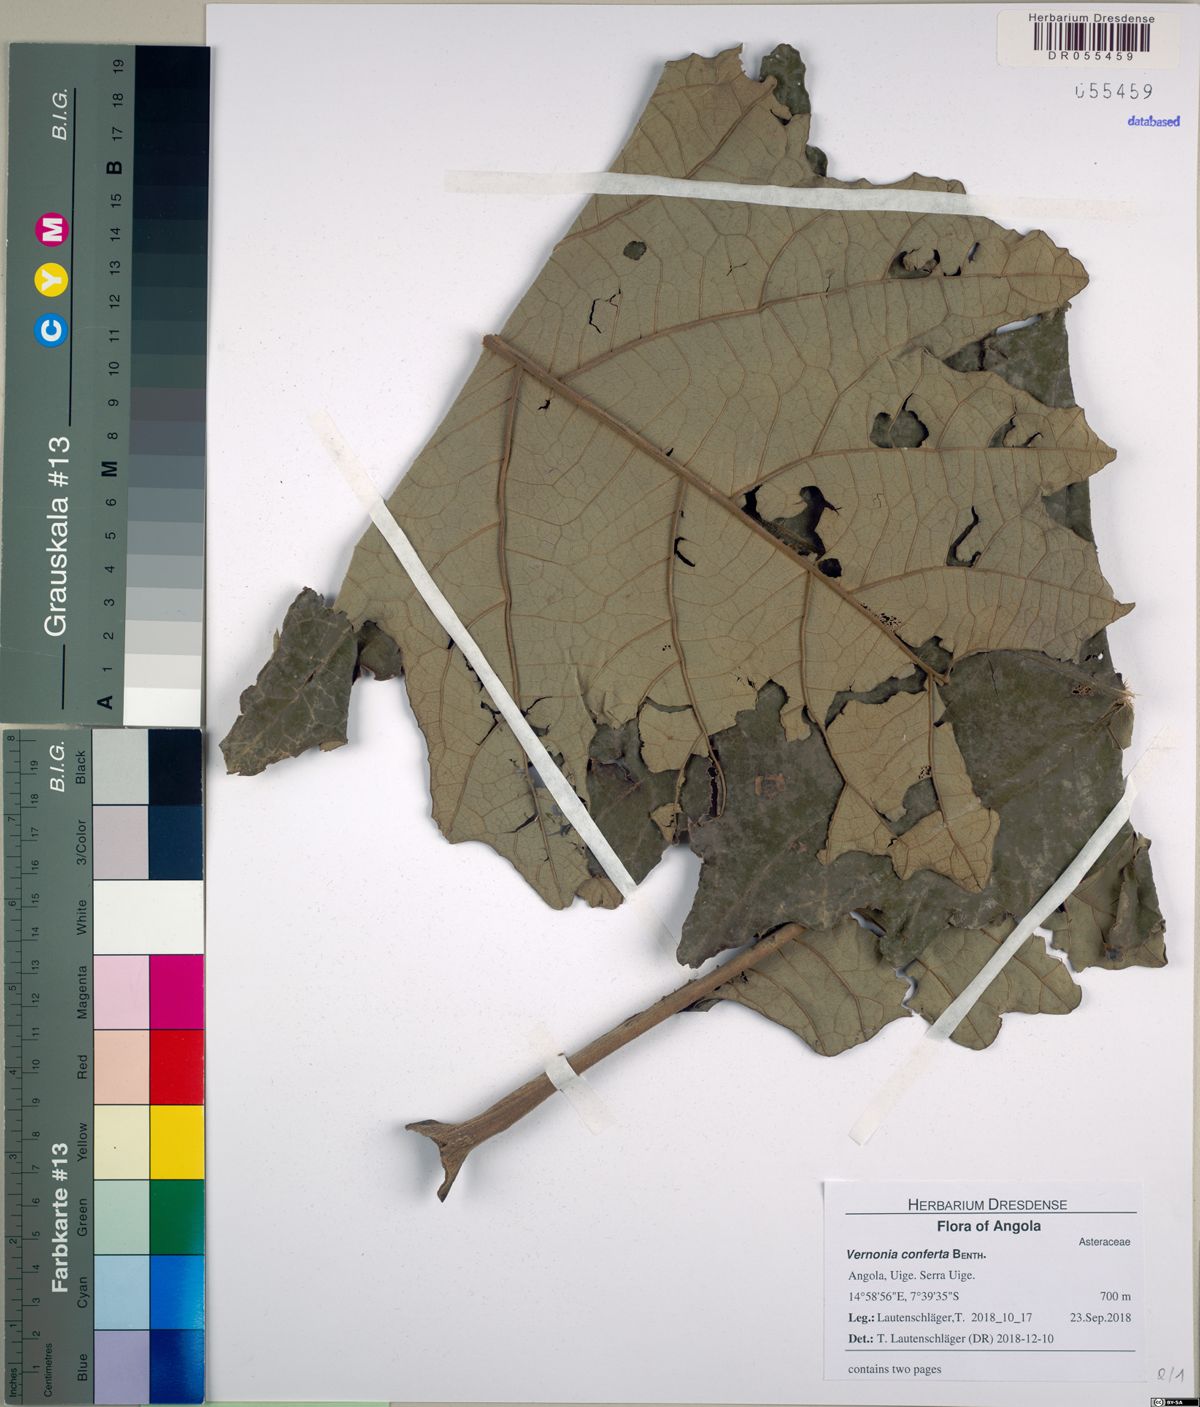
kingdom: Plantae
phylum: Tracheophyta
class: Magnoliopsida
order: Asterales
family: Asteraceae
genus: Monosis
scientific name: Monosis conferta
